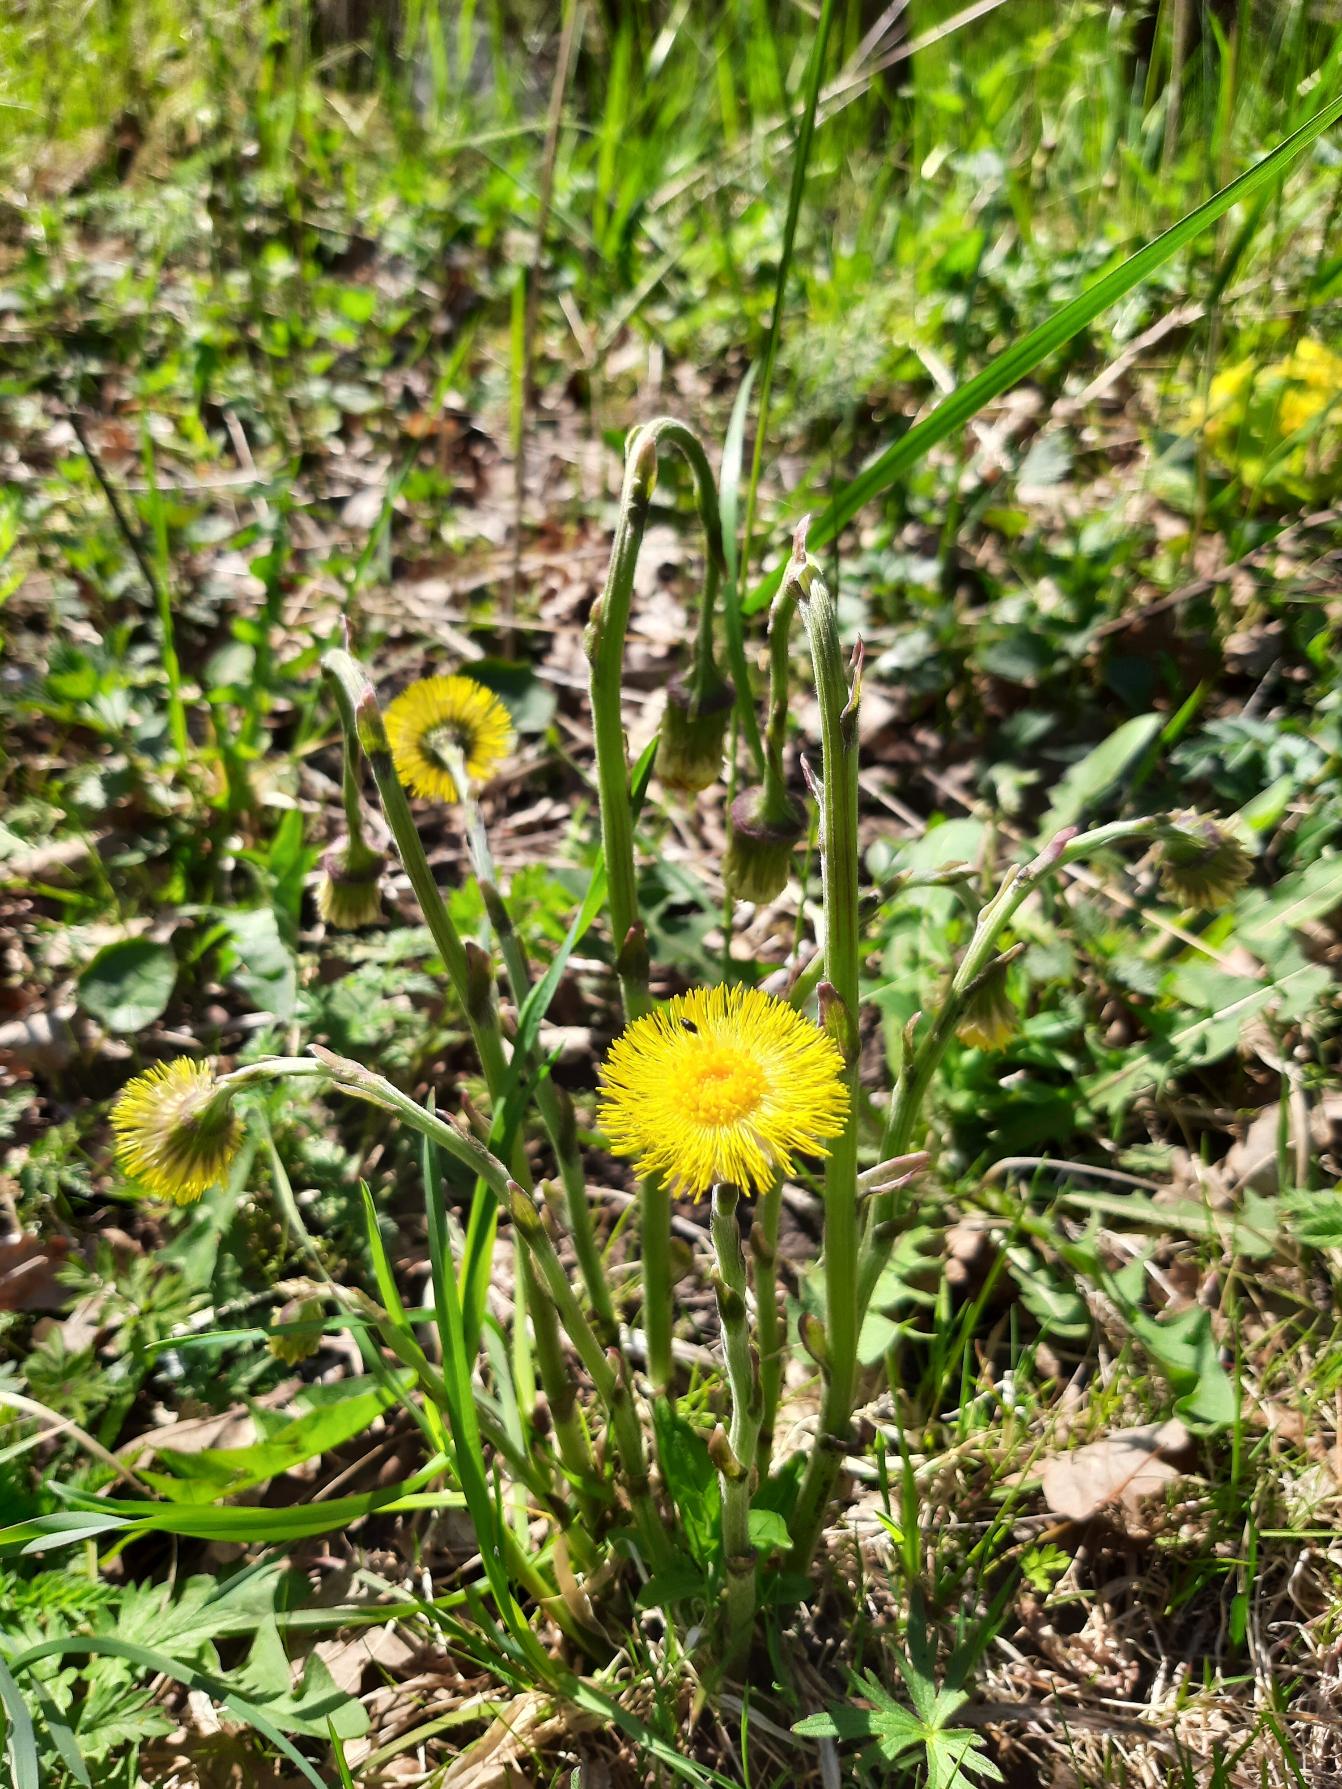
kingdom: Plantae
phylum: Tracheophyta
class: Magnoliopsida
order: Asterales
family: Asteraceae
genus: Tussilago
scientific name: Tussilago farfara
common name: Følfod
